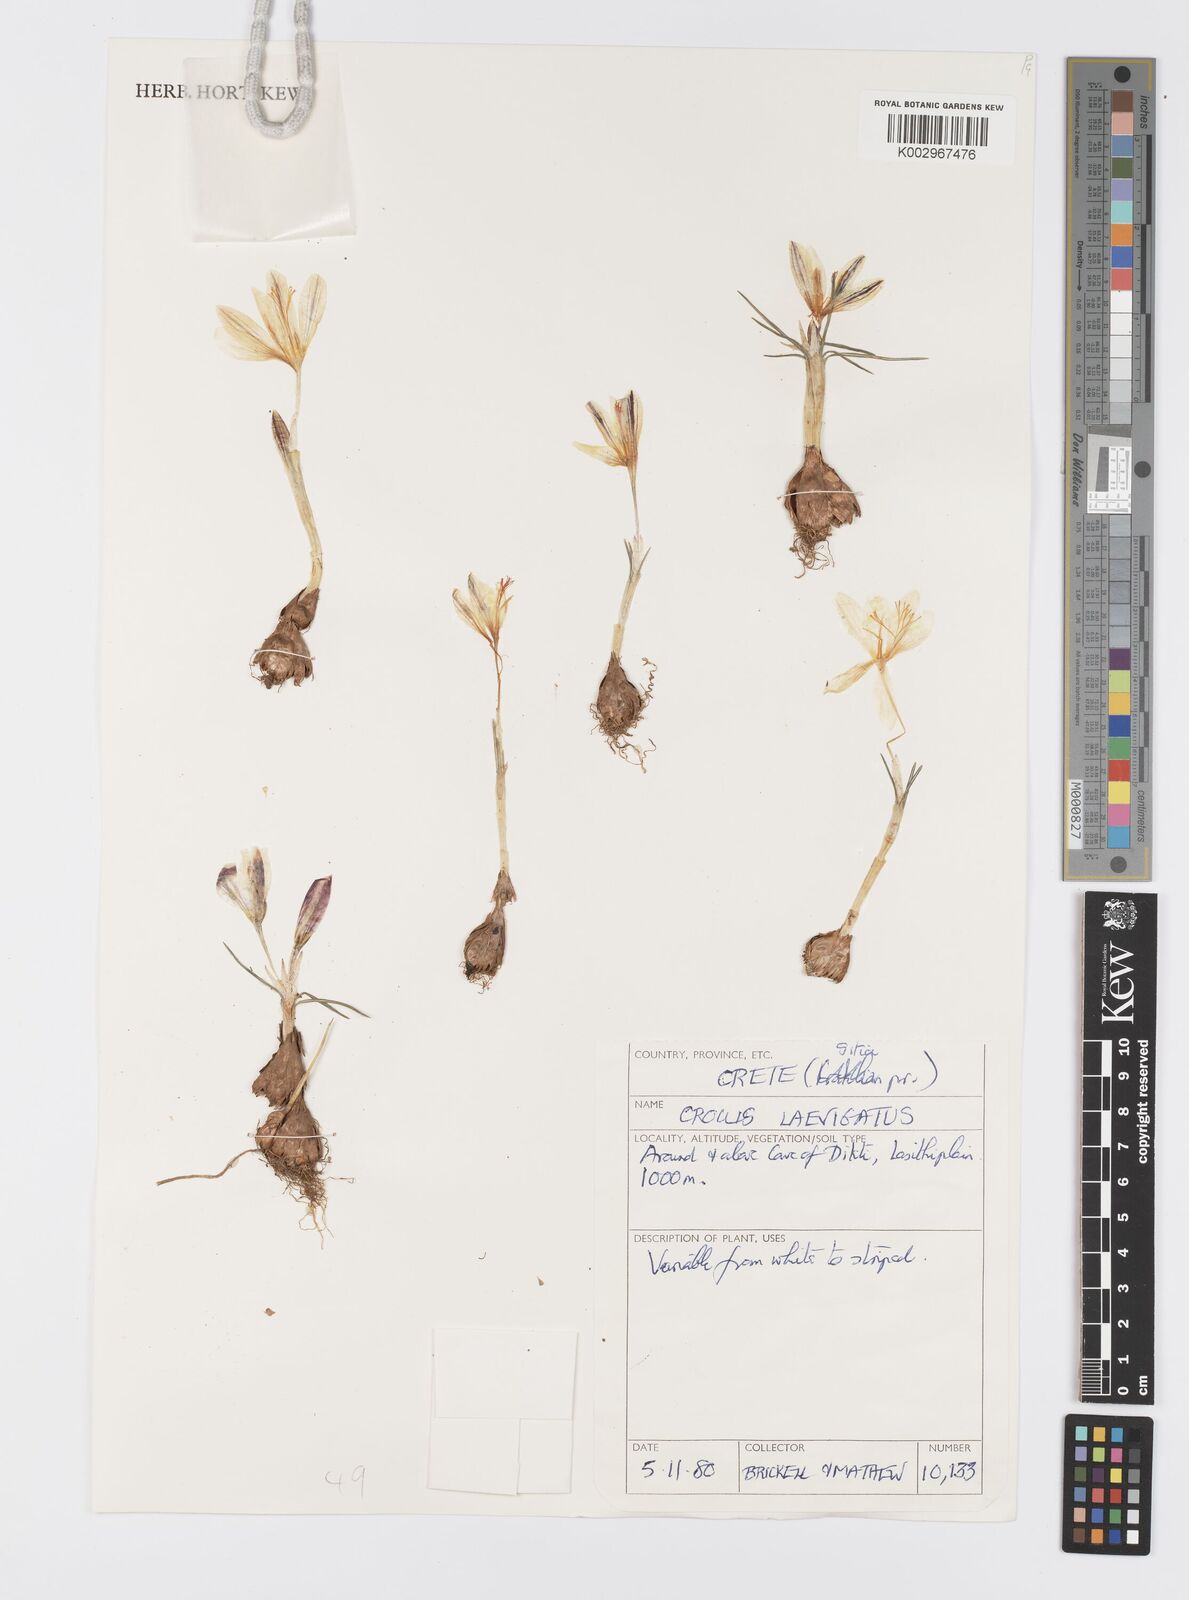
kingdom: Plantae
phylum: Tracheophyta
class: Liliopsida
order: Asparagales
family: Iridaceae
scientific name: Iridaceae
